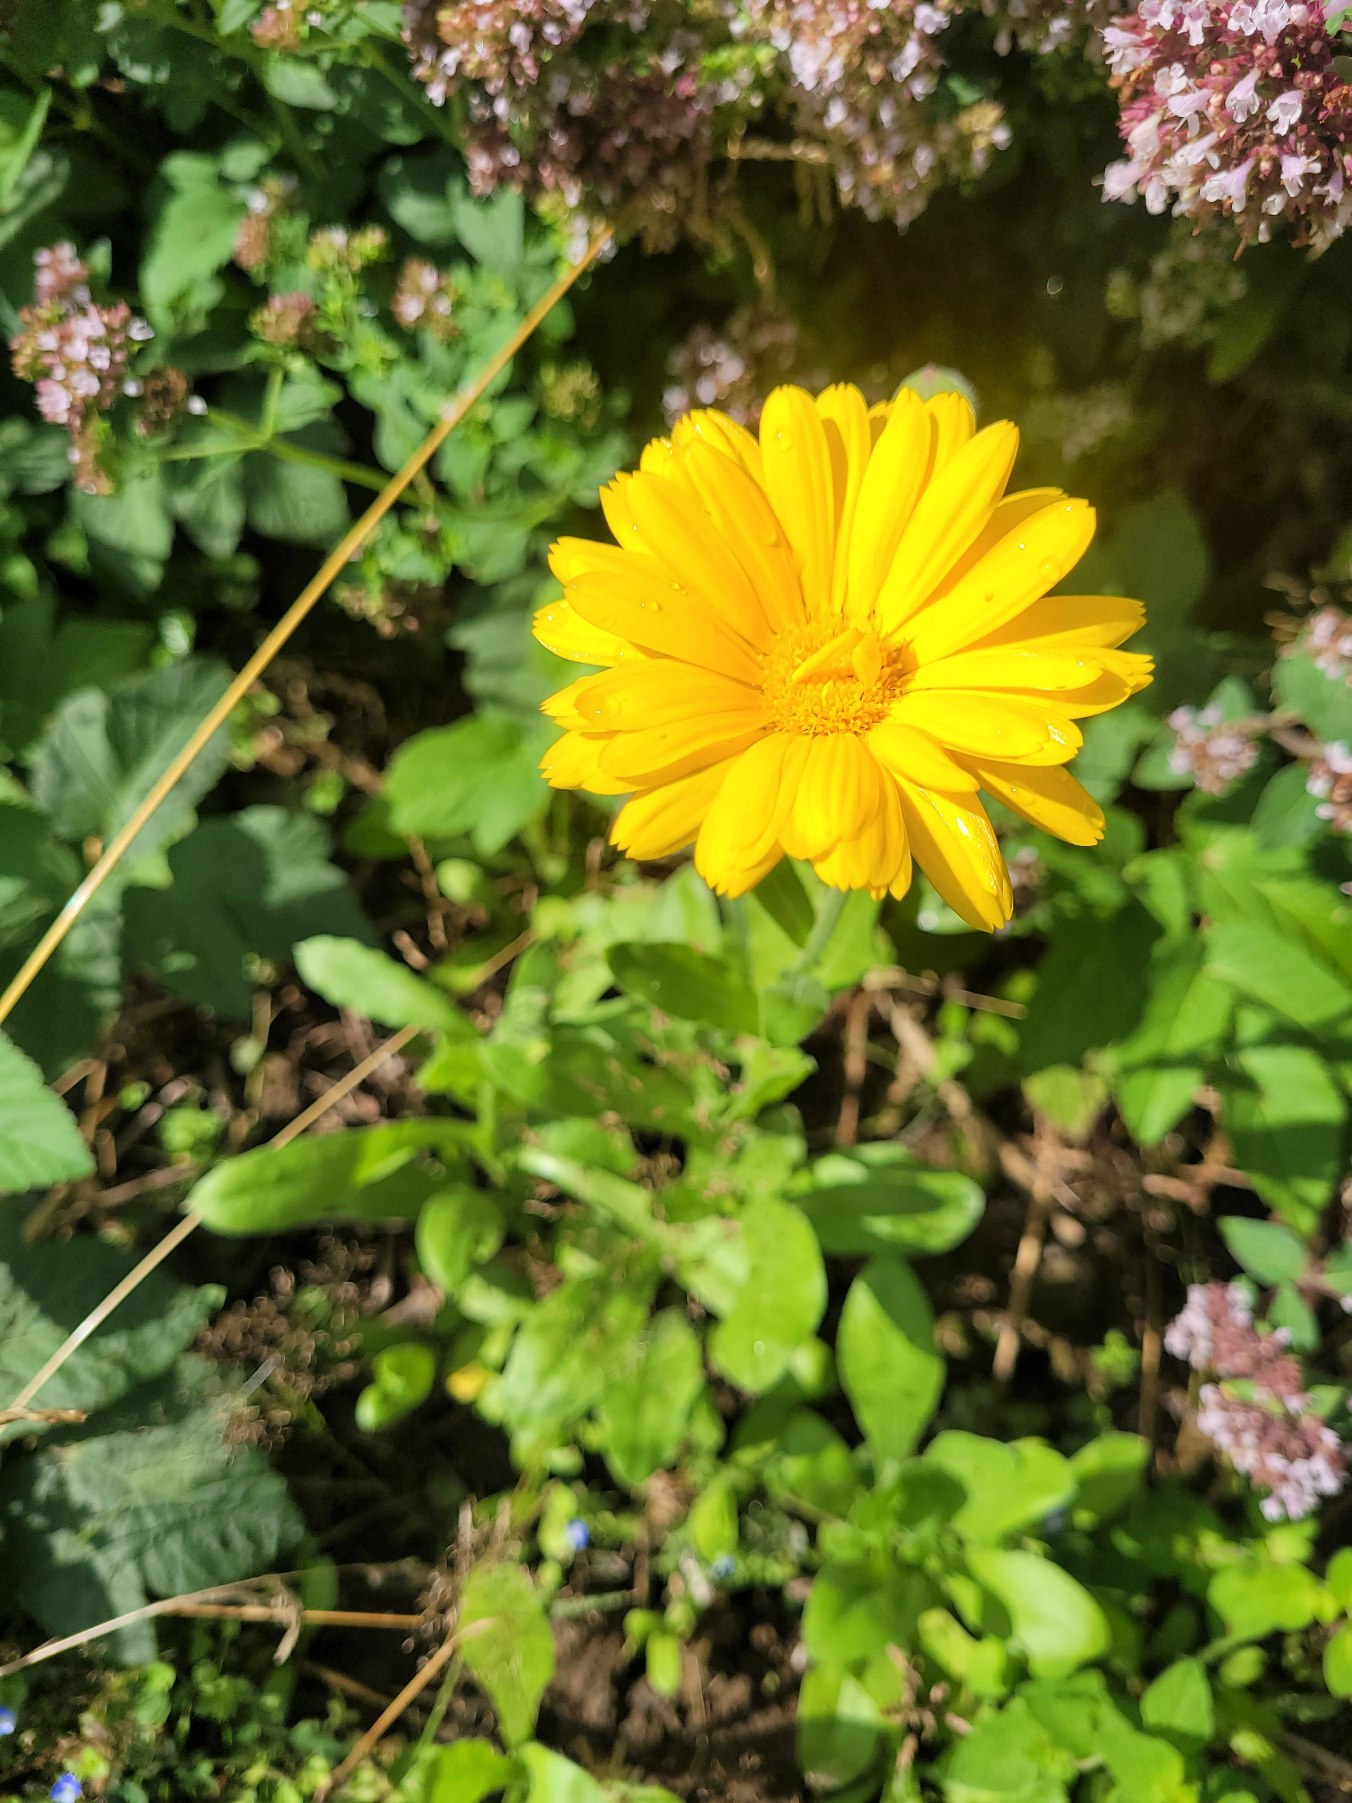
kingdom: Plantae
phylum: Tracheophyta
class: Magnoliopsida
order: Asterales
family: Asteraceae
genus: Calendula
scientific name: Calendula officinalis
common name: Have-morgenfrue
